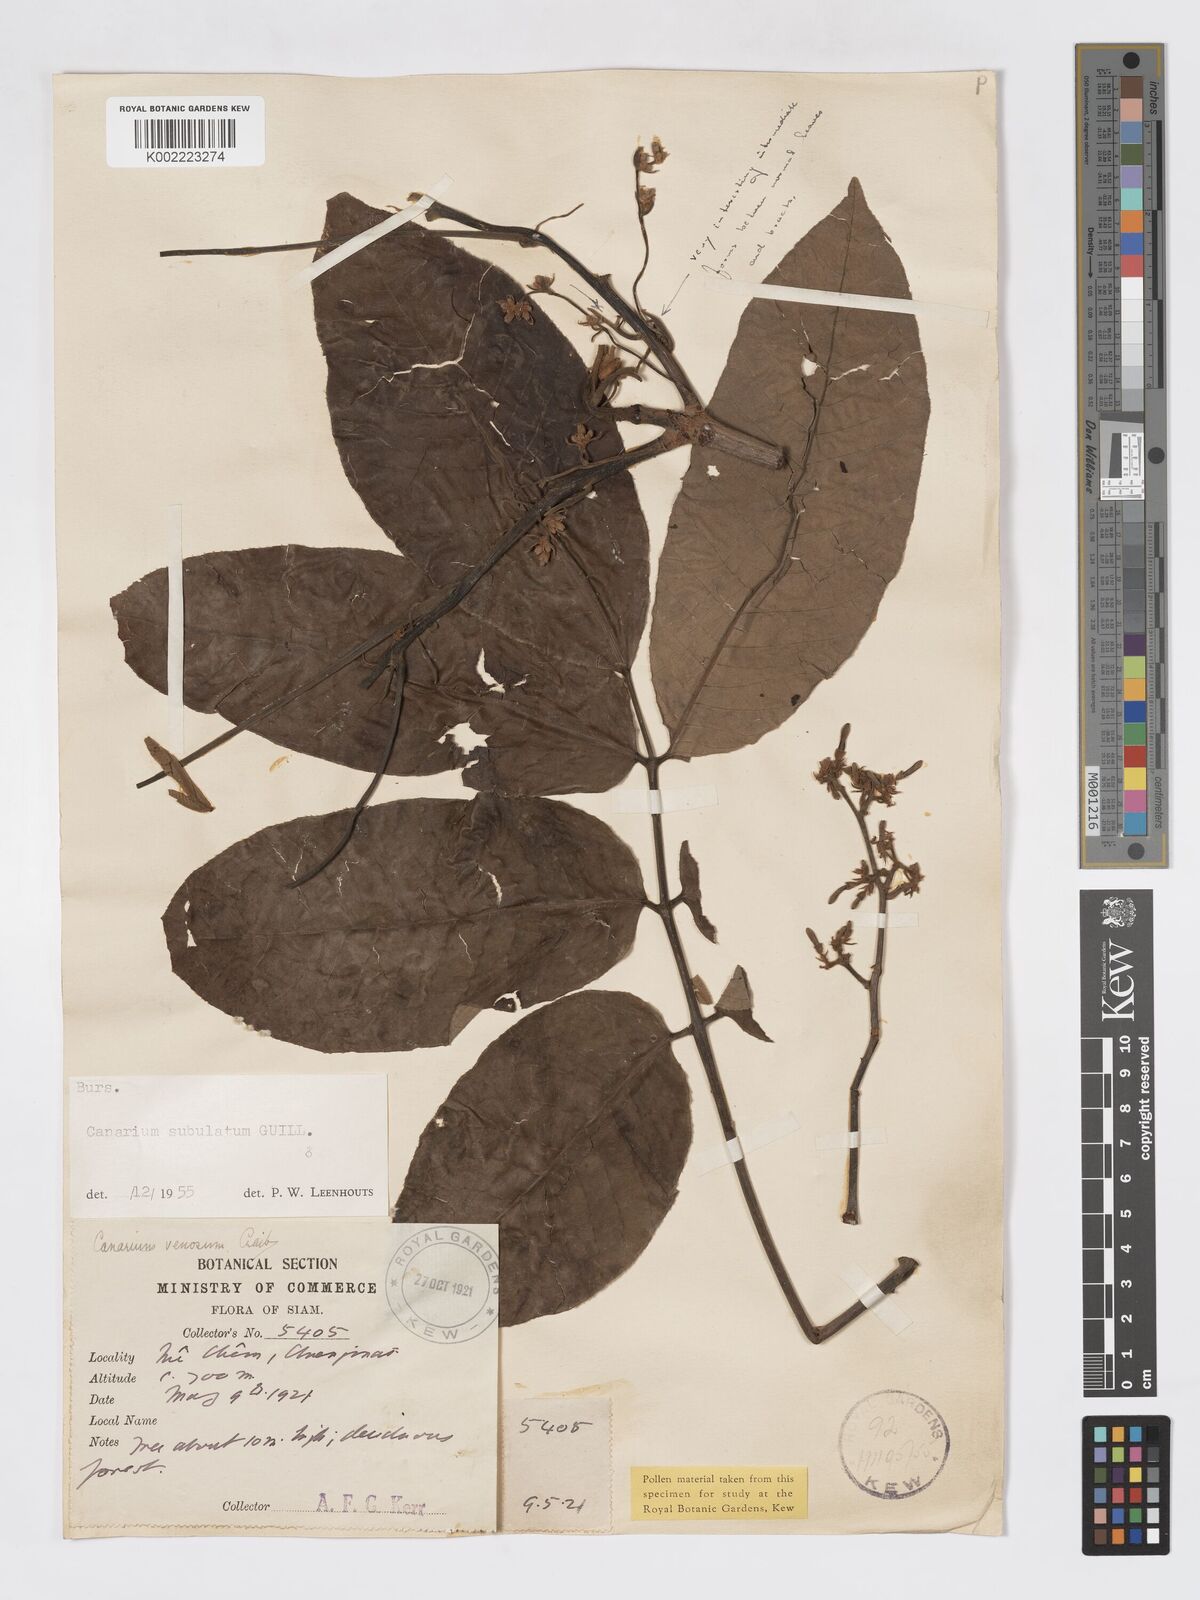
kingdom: Plantae
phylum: Tracheophyta
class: Magnoliopsida
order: Sapindales
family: Burseraceae
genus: Canarium
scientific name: Canarium subulatum
